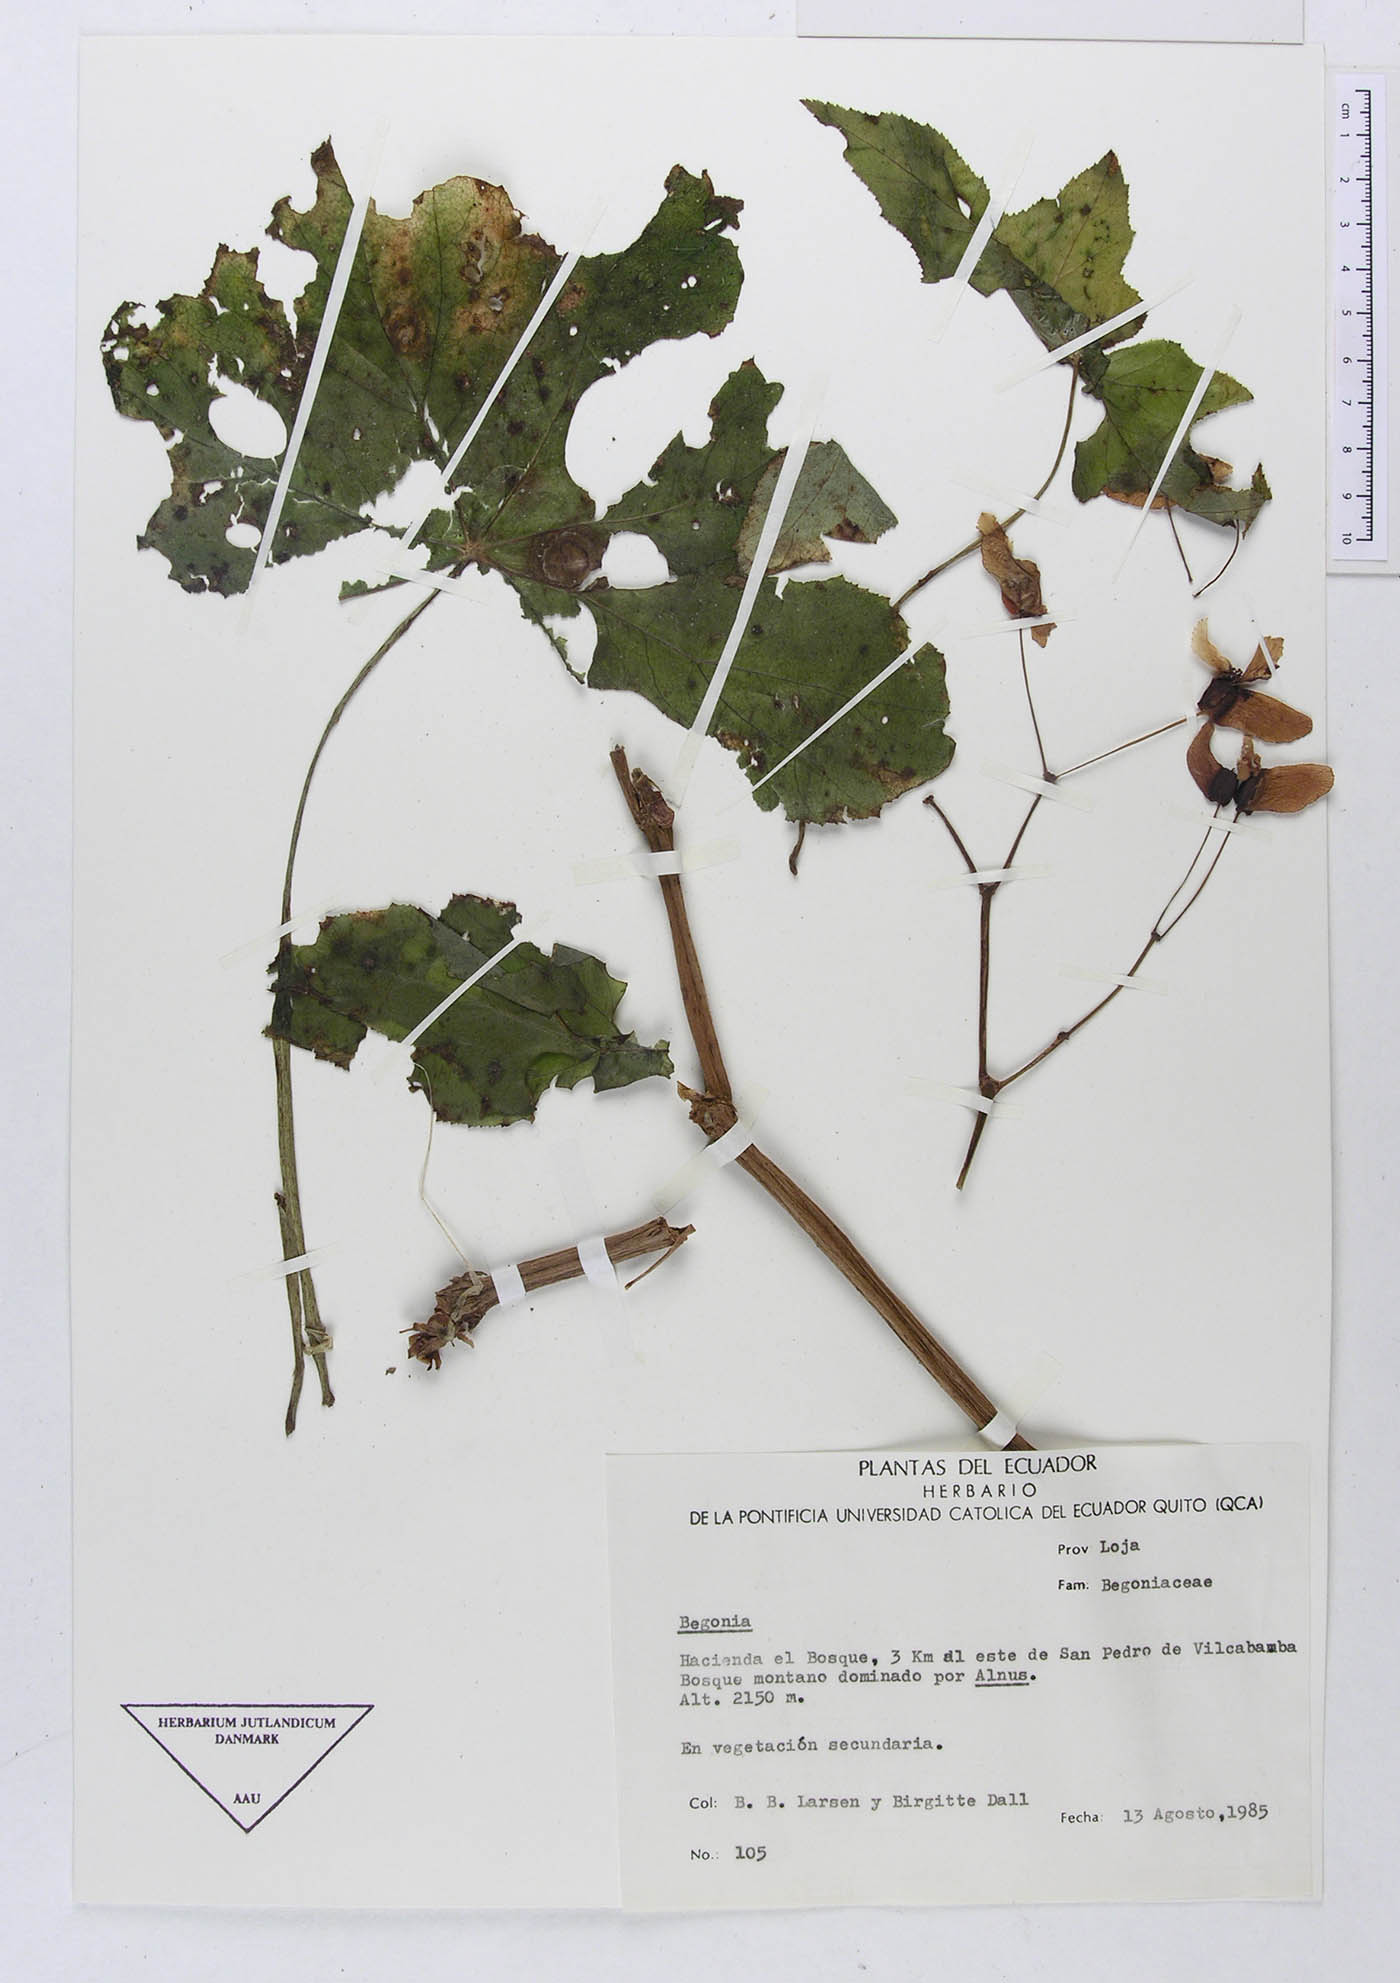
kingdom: Plantae
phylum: Tracheophyta
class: Magnoliopsida
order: Cucurbitales
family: Begoniaceae
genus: Begonia
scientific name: Begonia acerifolia
